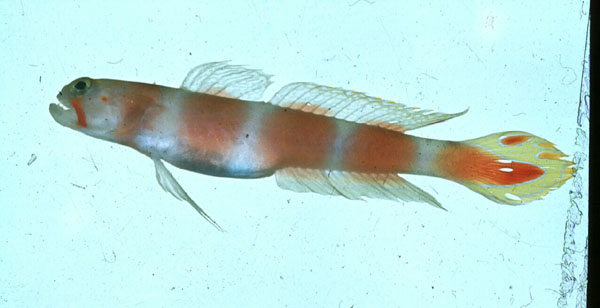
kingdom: Animalia
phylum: Chordata
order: Perciformes
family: Gobiidae
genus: Amblyeleotris
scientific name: Amblyeleotris aurora
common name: Pinkbar goby
